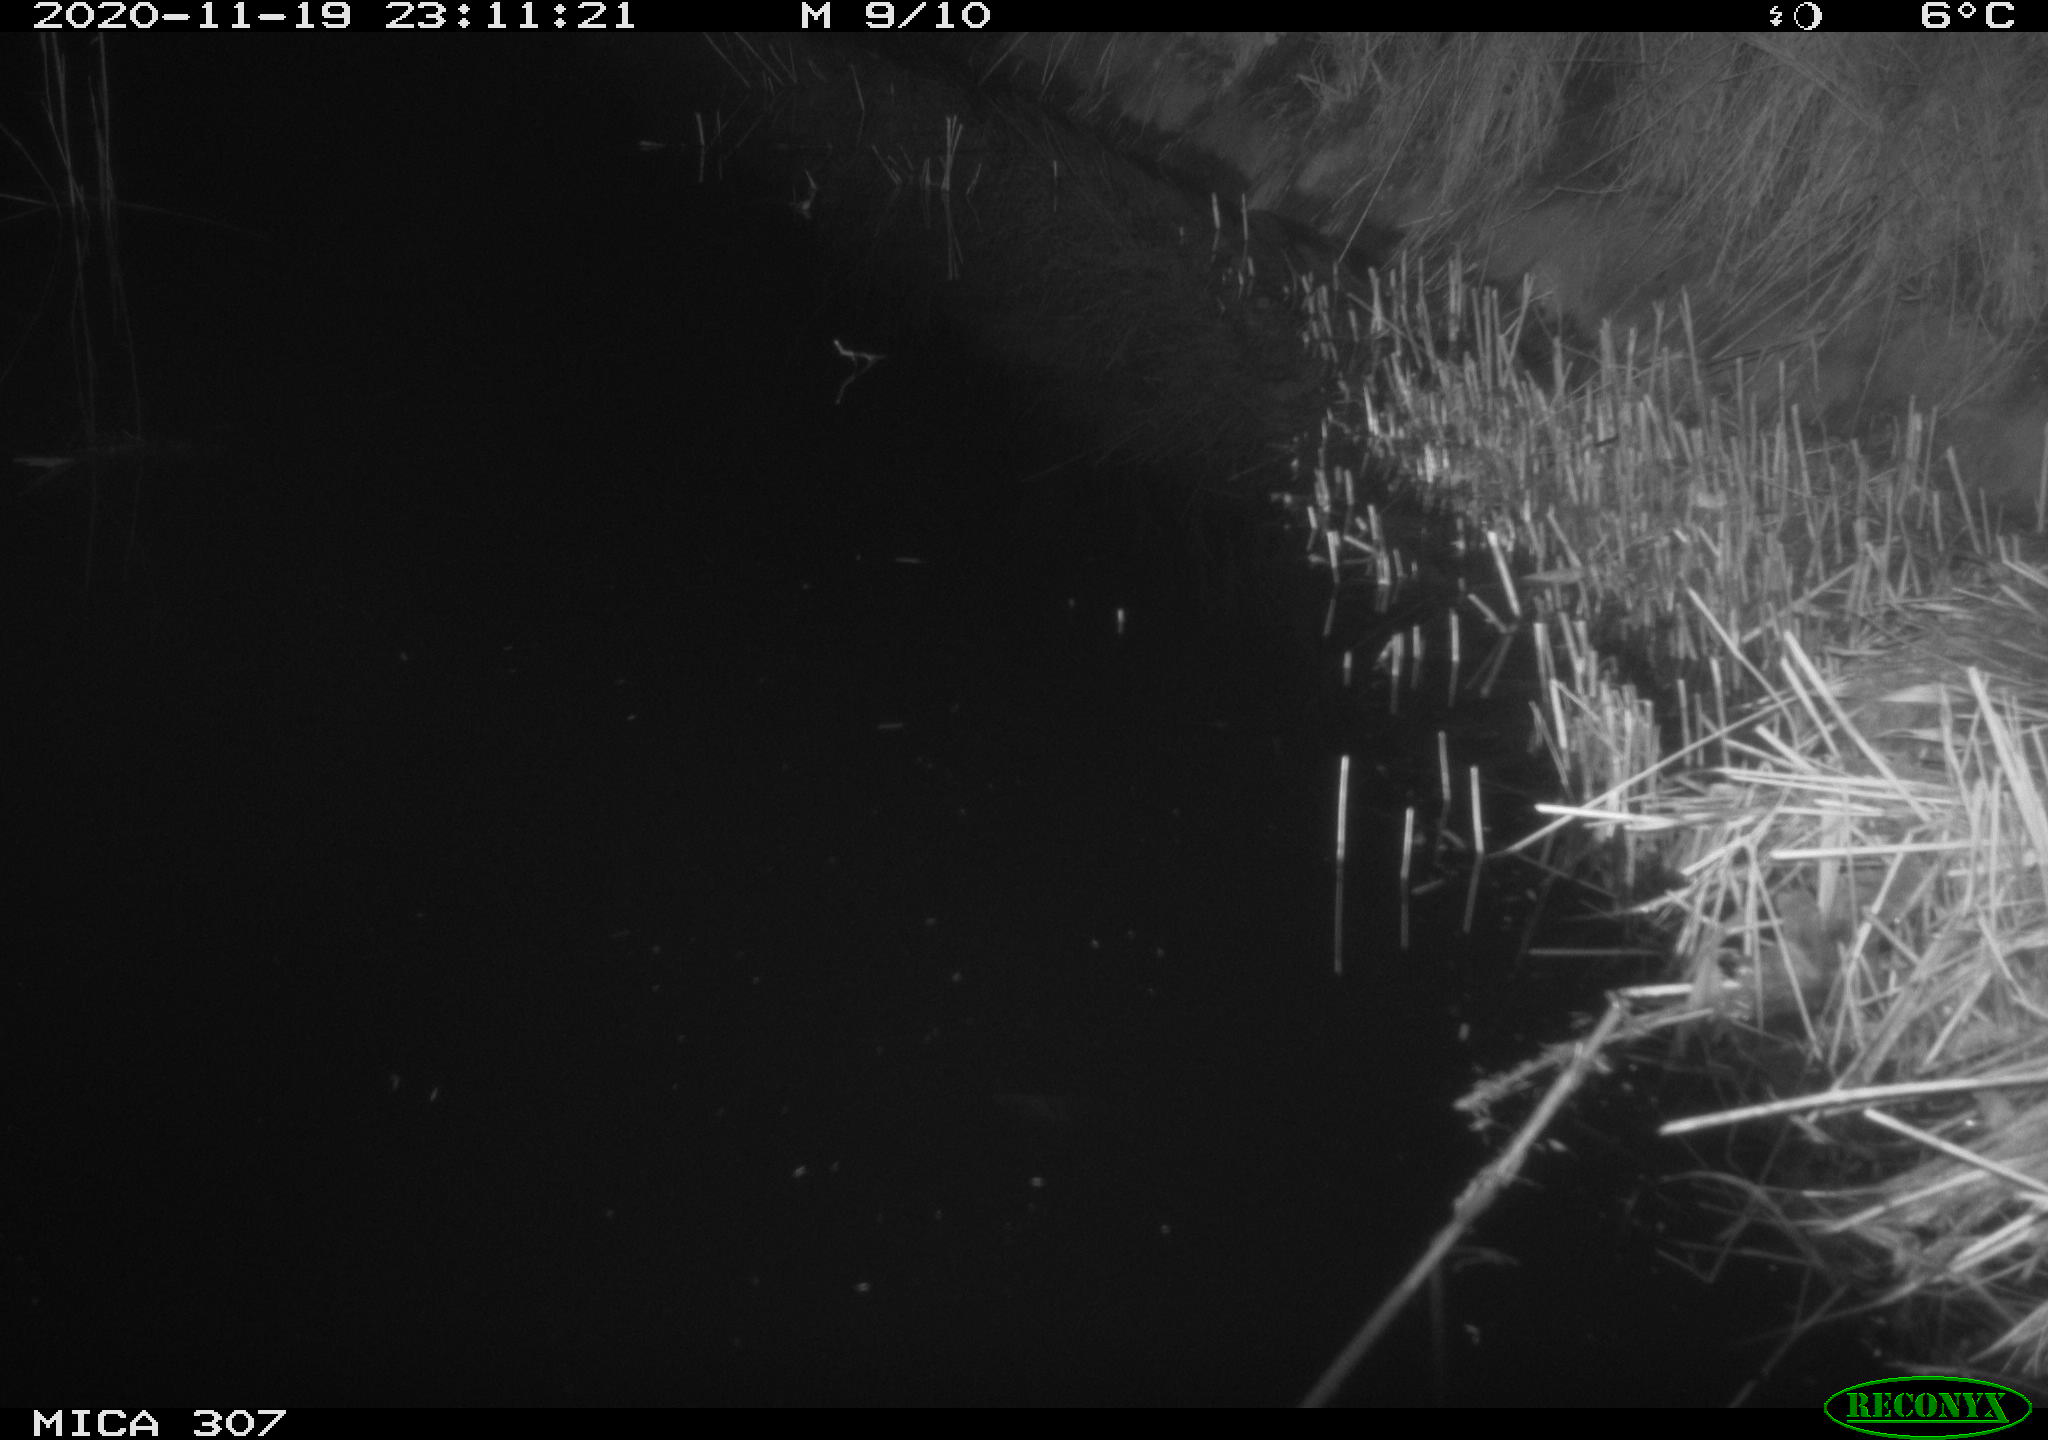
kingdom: Animalia
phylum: Chordata
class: Mammalia
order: Rodentia
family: Muridae
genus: Rattus
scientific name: Rattus norvegicus
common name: Brown rat
